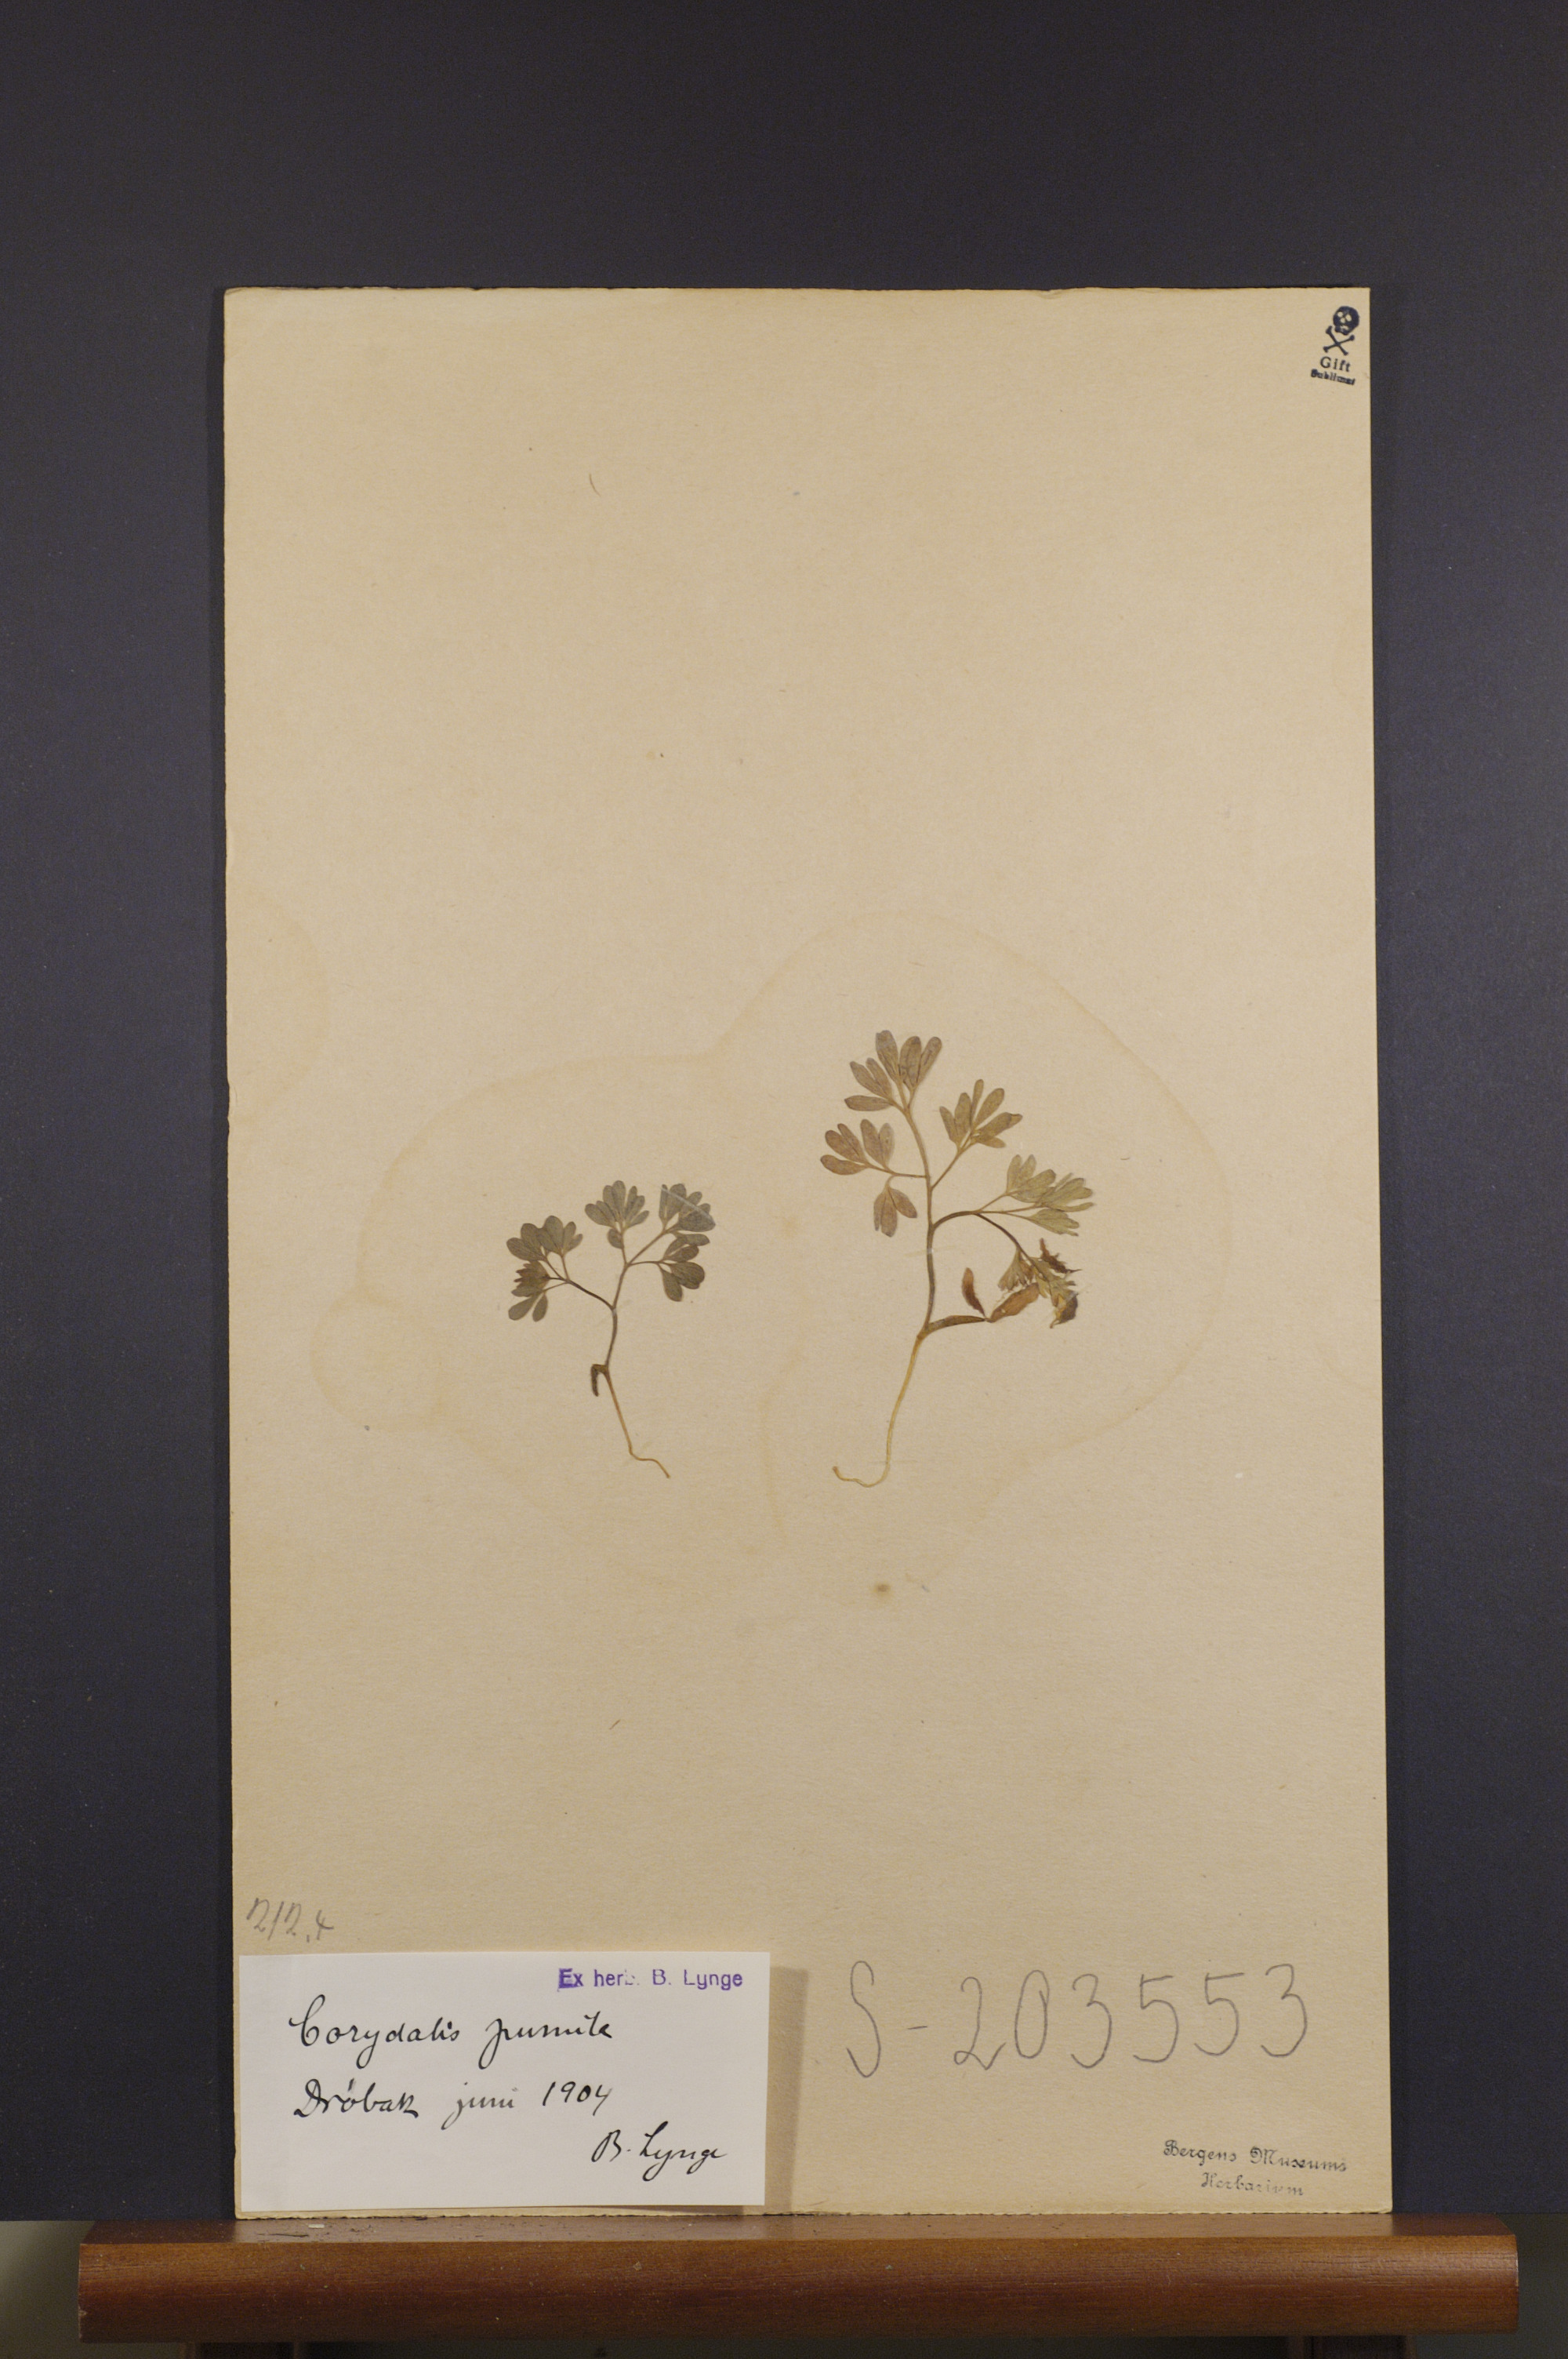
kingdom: Plantae
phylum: Tracheophyta
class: Magnoliopsida
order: Ranunculales
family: Papaveraceae
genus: Corydalis
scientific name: Corydalis pumila
